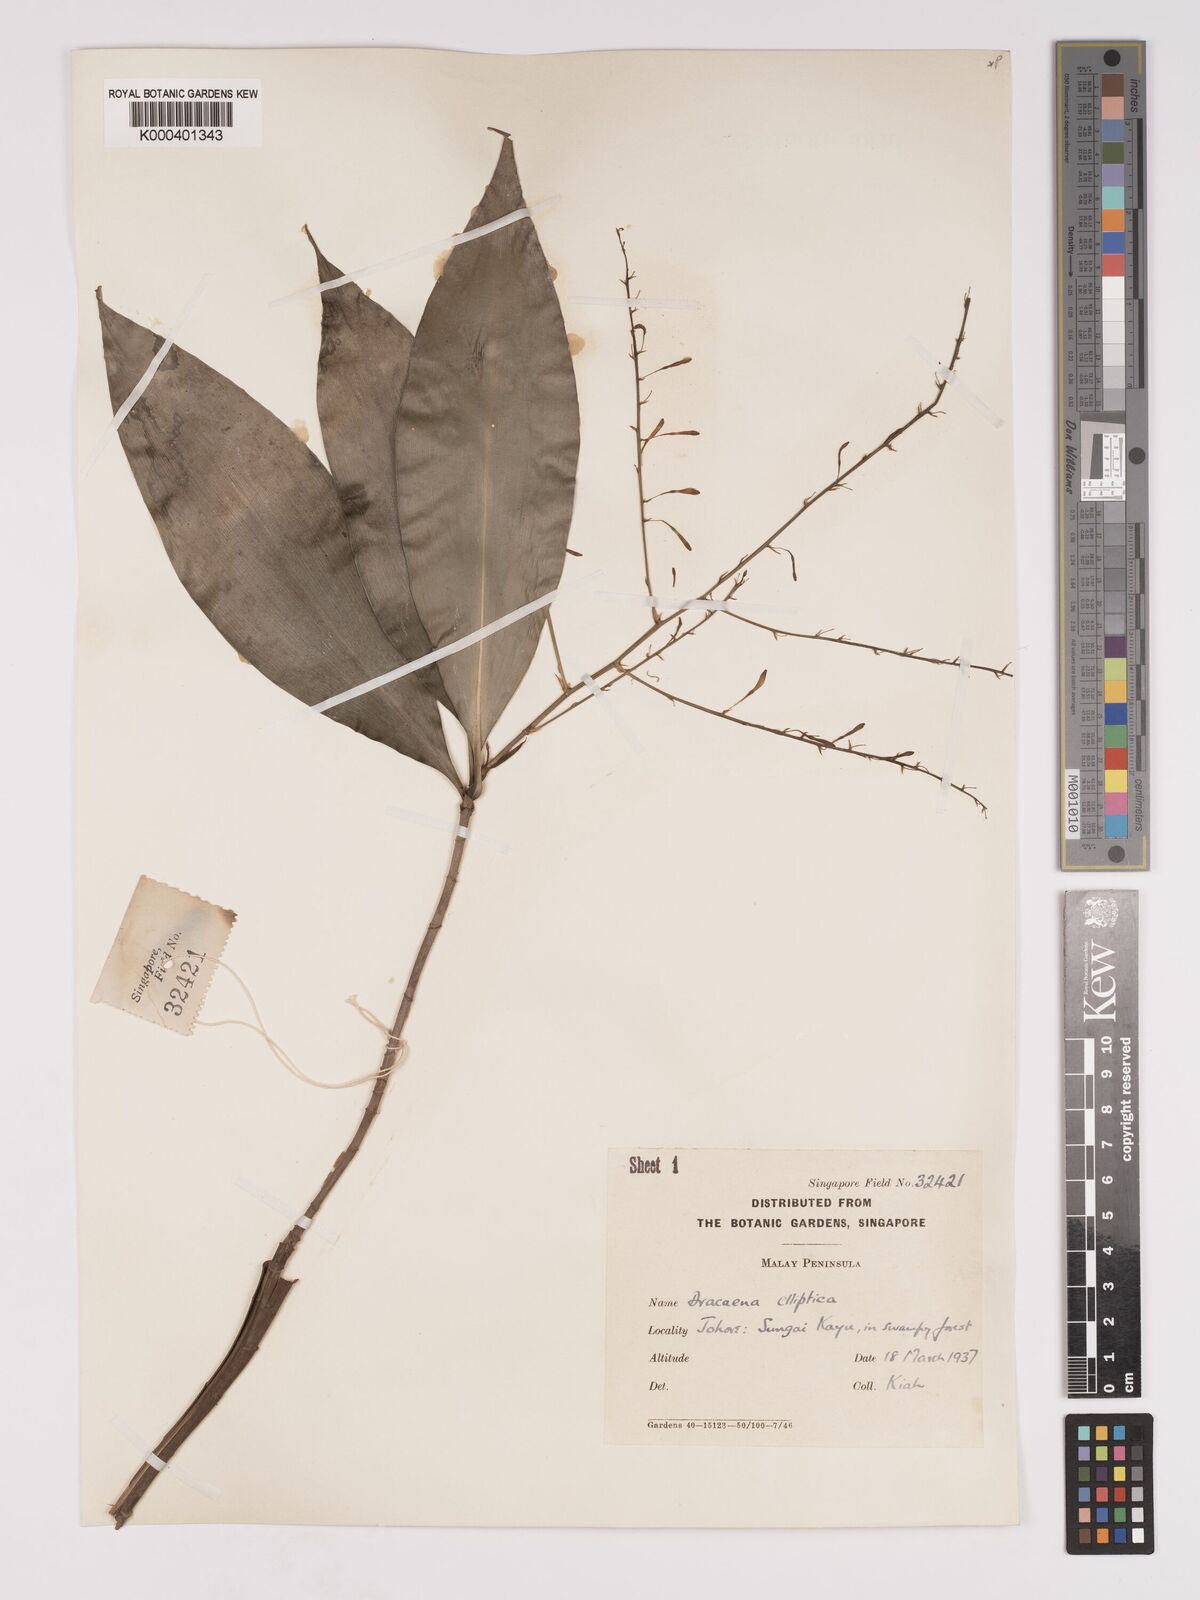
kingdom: Plantae
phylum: Tracheophyta
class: Liliopsida
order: Asparagales
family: Asparagaceae
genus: Dracaena
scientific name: Dracaena elliptica
